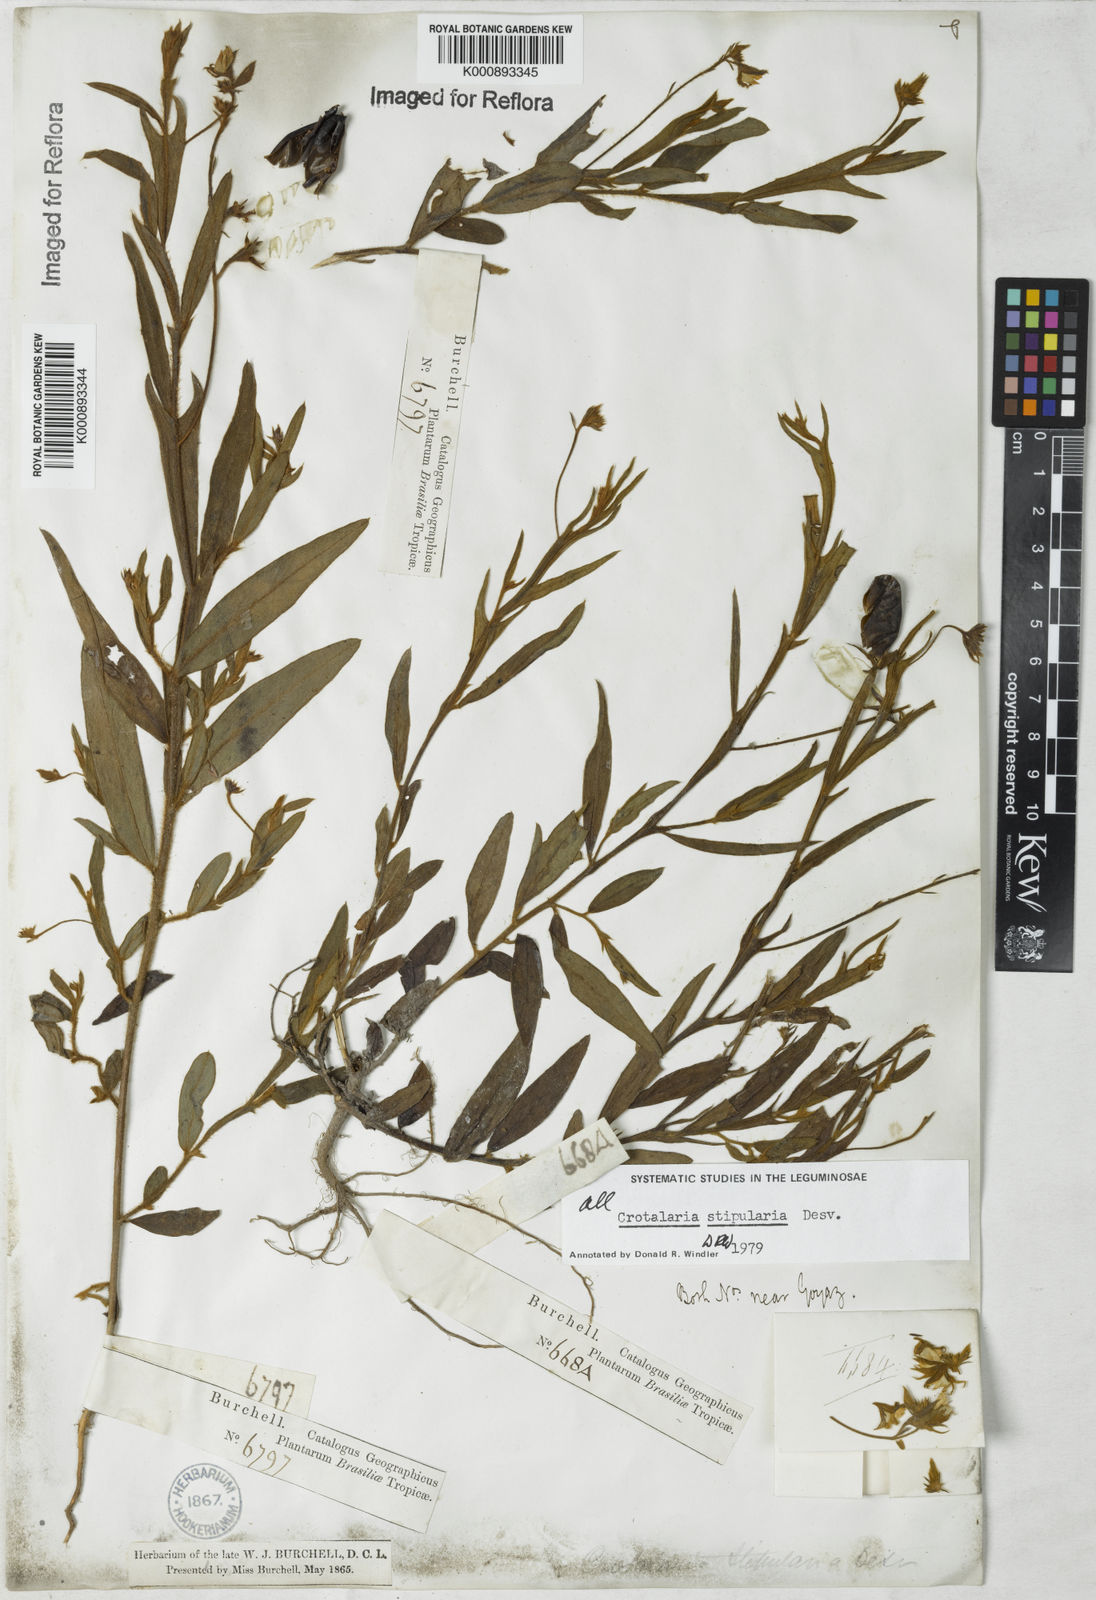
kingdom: Plantae
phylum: Tracheophyta
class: Magnoliopsida
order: Fabales
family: Fabaceae
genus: Crotalaria
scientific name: Crotalaria stipularia
